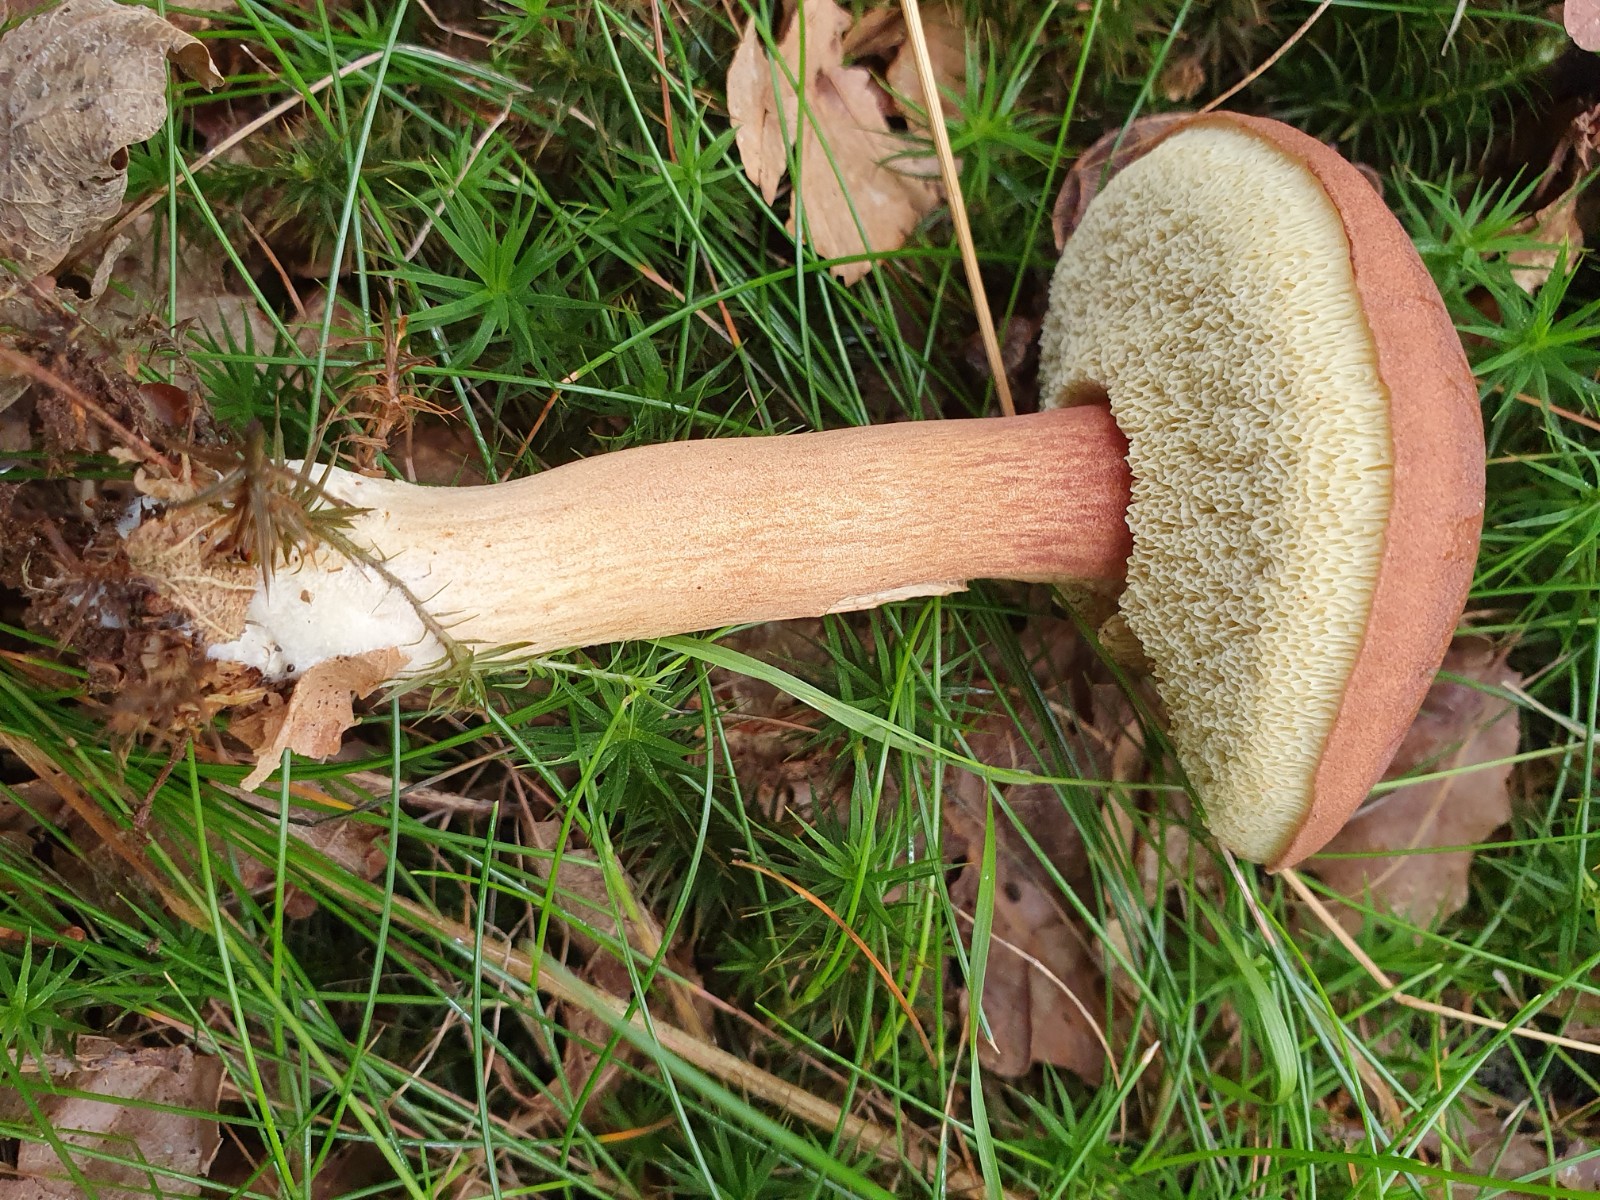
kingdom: Fungi
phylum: Basidiomycota
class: Agaricomycetes
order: Boletales
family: Boletaceae
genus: Imleria
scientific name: Imleria badia
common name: brunstokket rørhat
